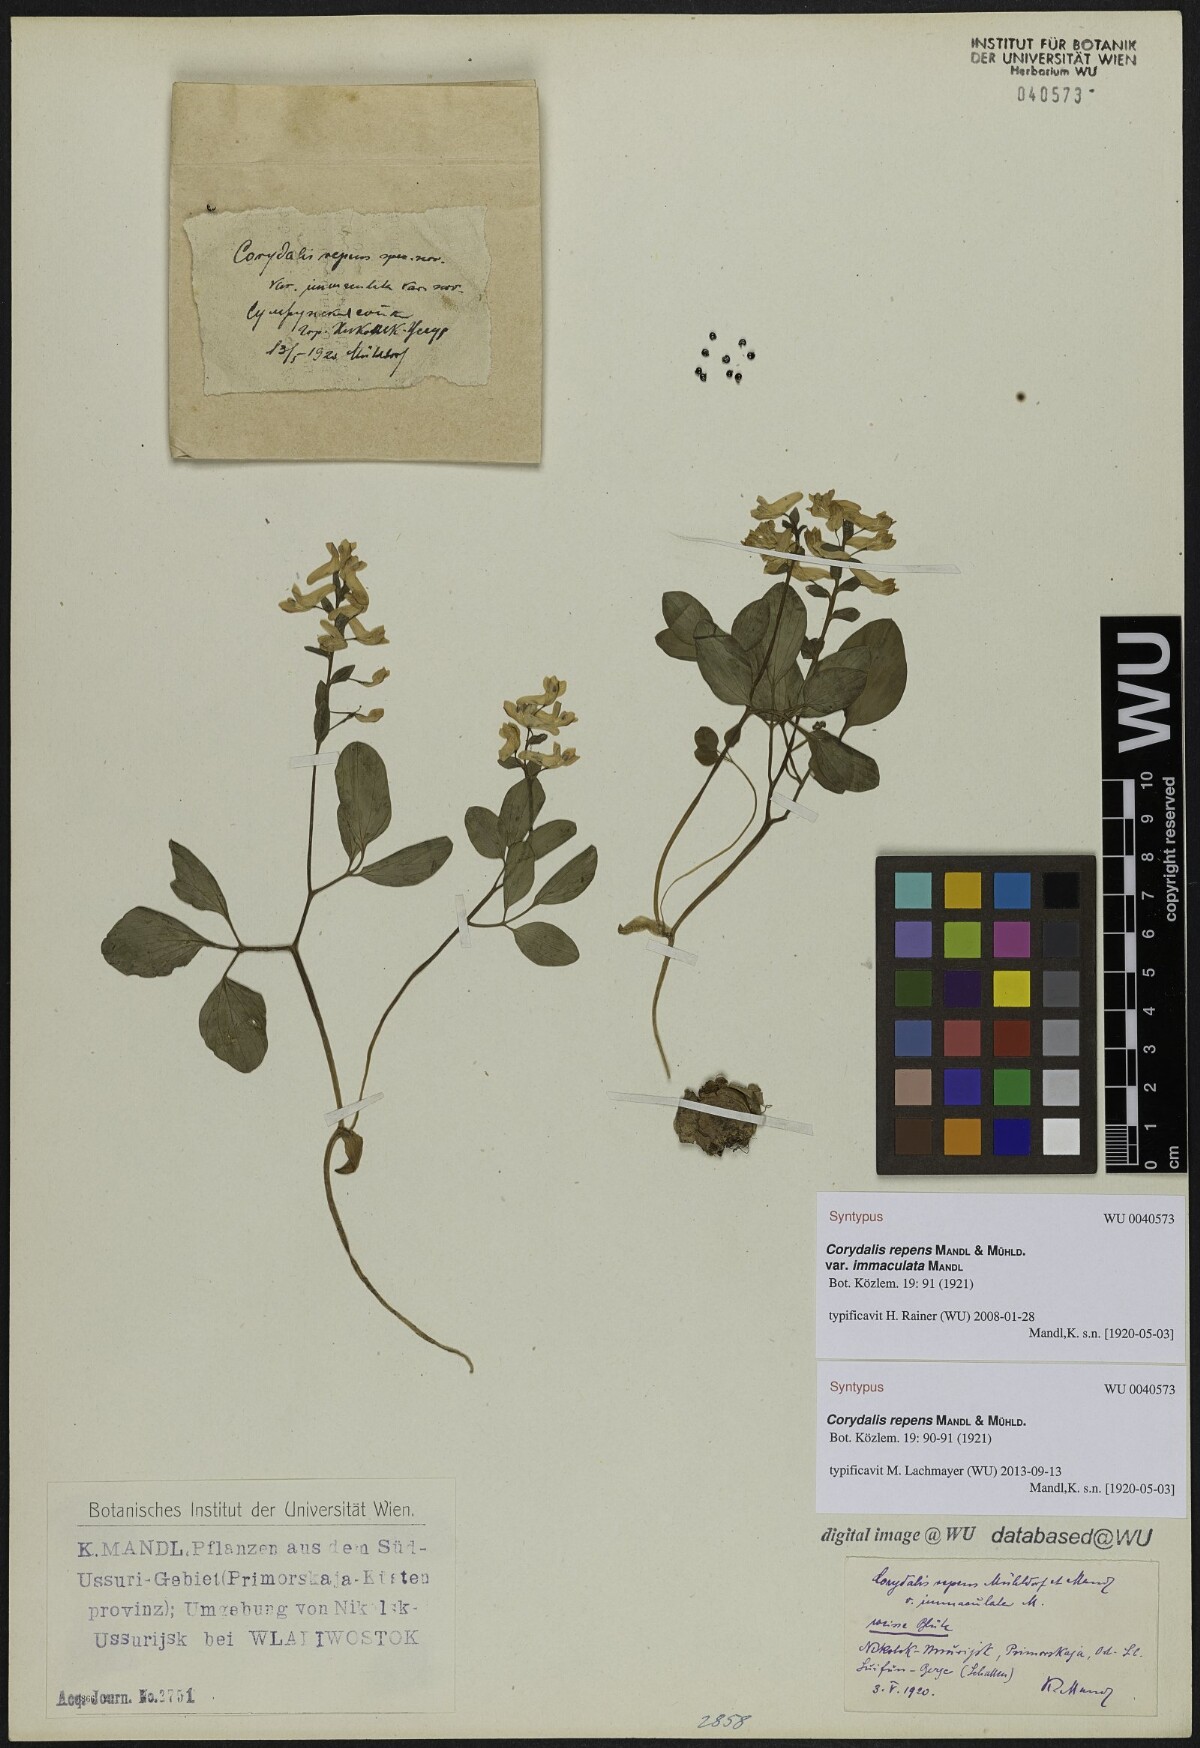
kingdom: Plantae
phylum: Tracheophyta
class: Magnoliopsida
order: Ranunculales
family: Papaveraceae
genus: Corydalis
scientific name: Corydalis repens
